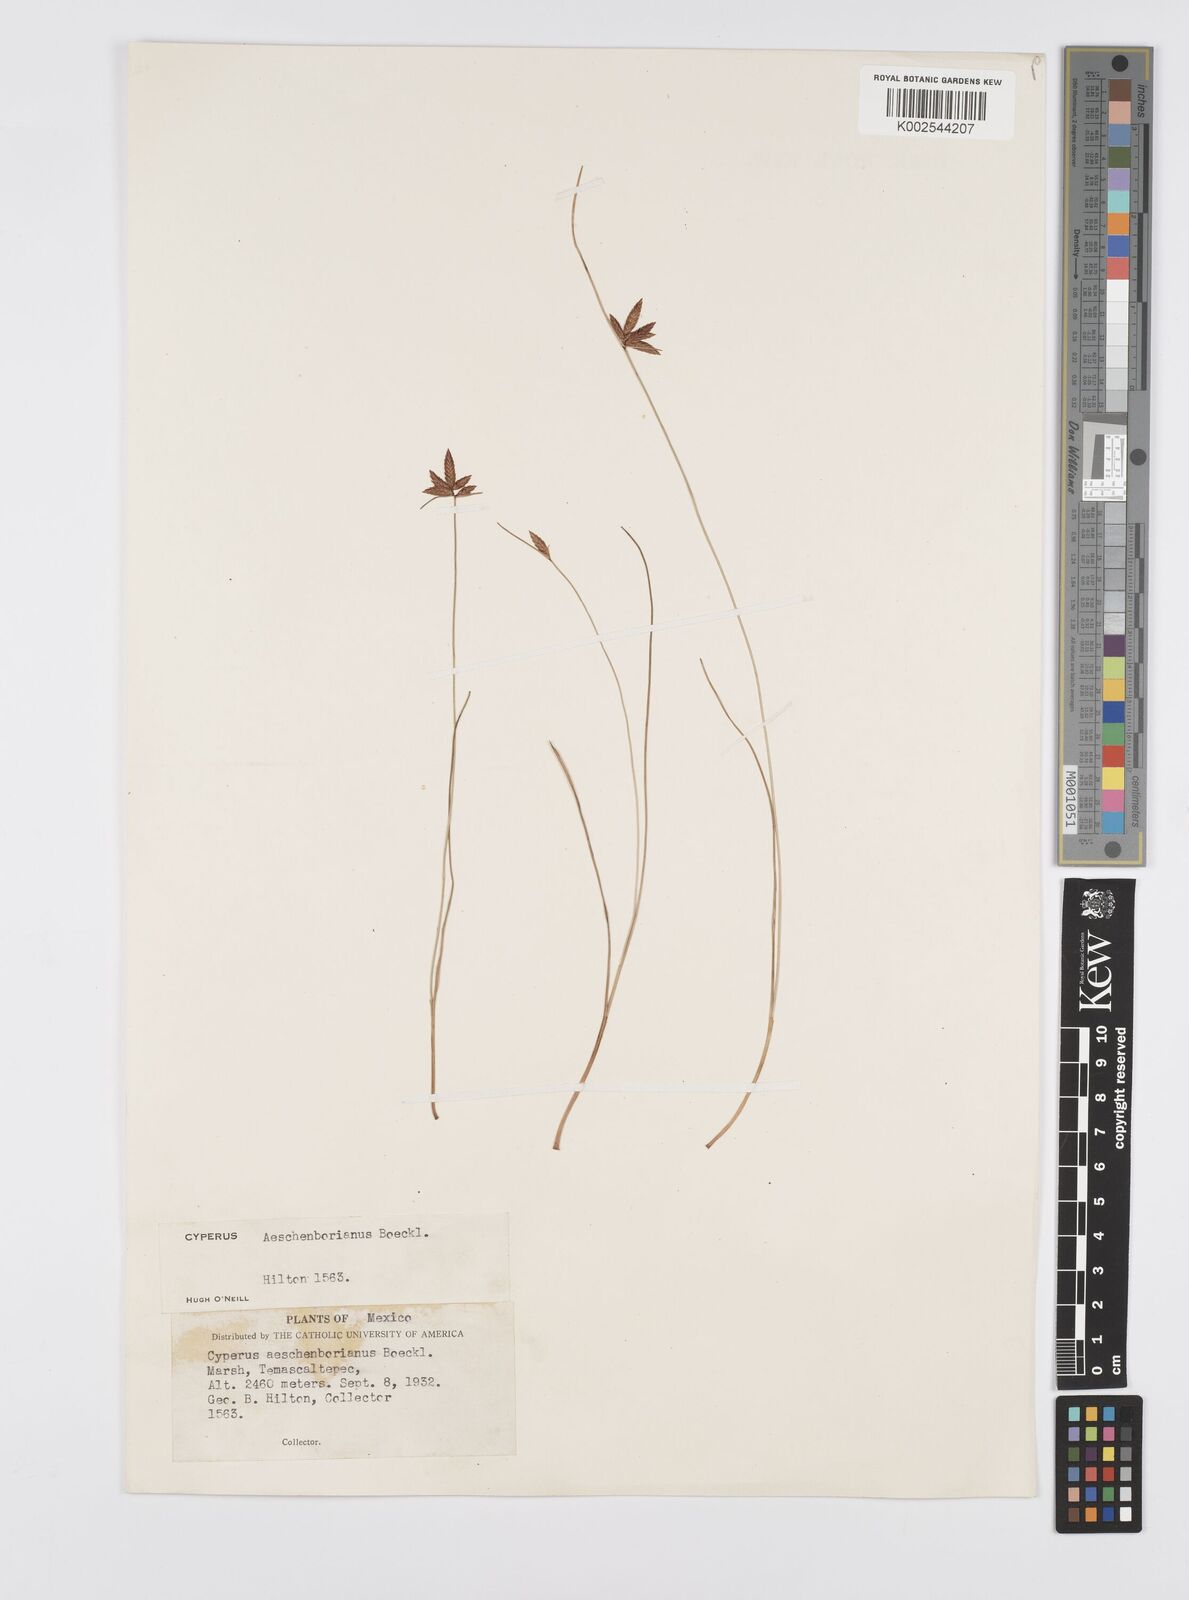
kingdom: Plantae
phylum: Tracheophyta
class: Liliopsida
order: Poales
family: Cyperaceae
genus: Cyperus
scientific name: Cyperus aschenbornianus
